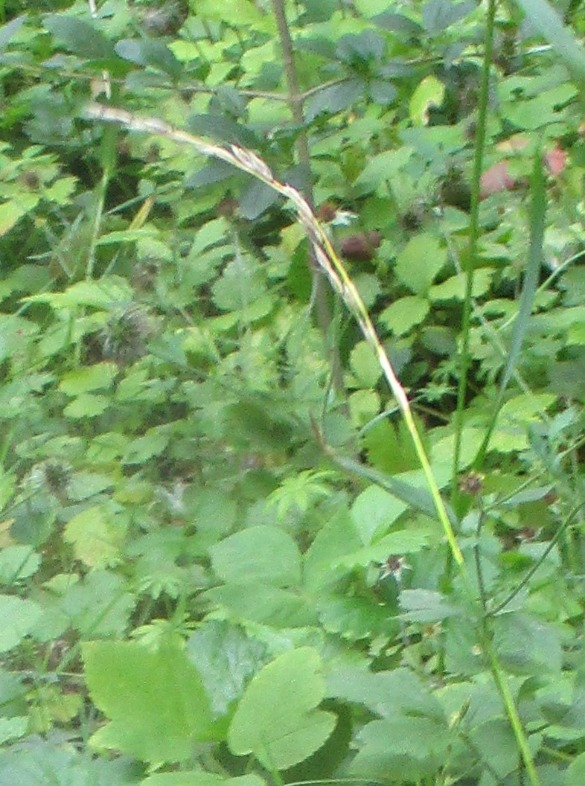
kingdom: Plantae
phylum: Tracheophyta
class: Liliopsida
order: Poales
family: Poaceae
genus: Arrhenatherum
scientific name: Arrhenatherum elatius
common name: Draphavre
